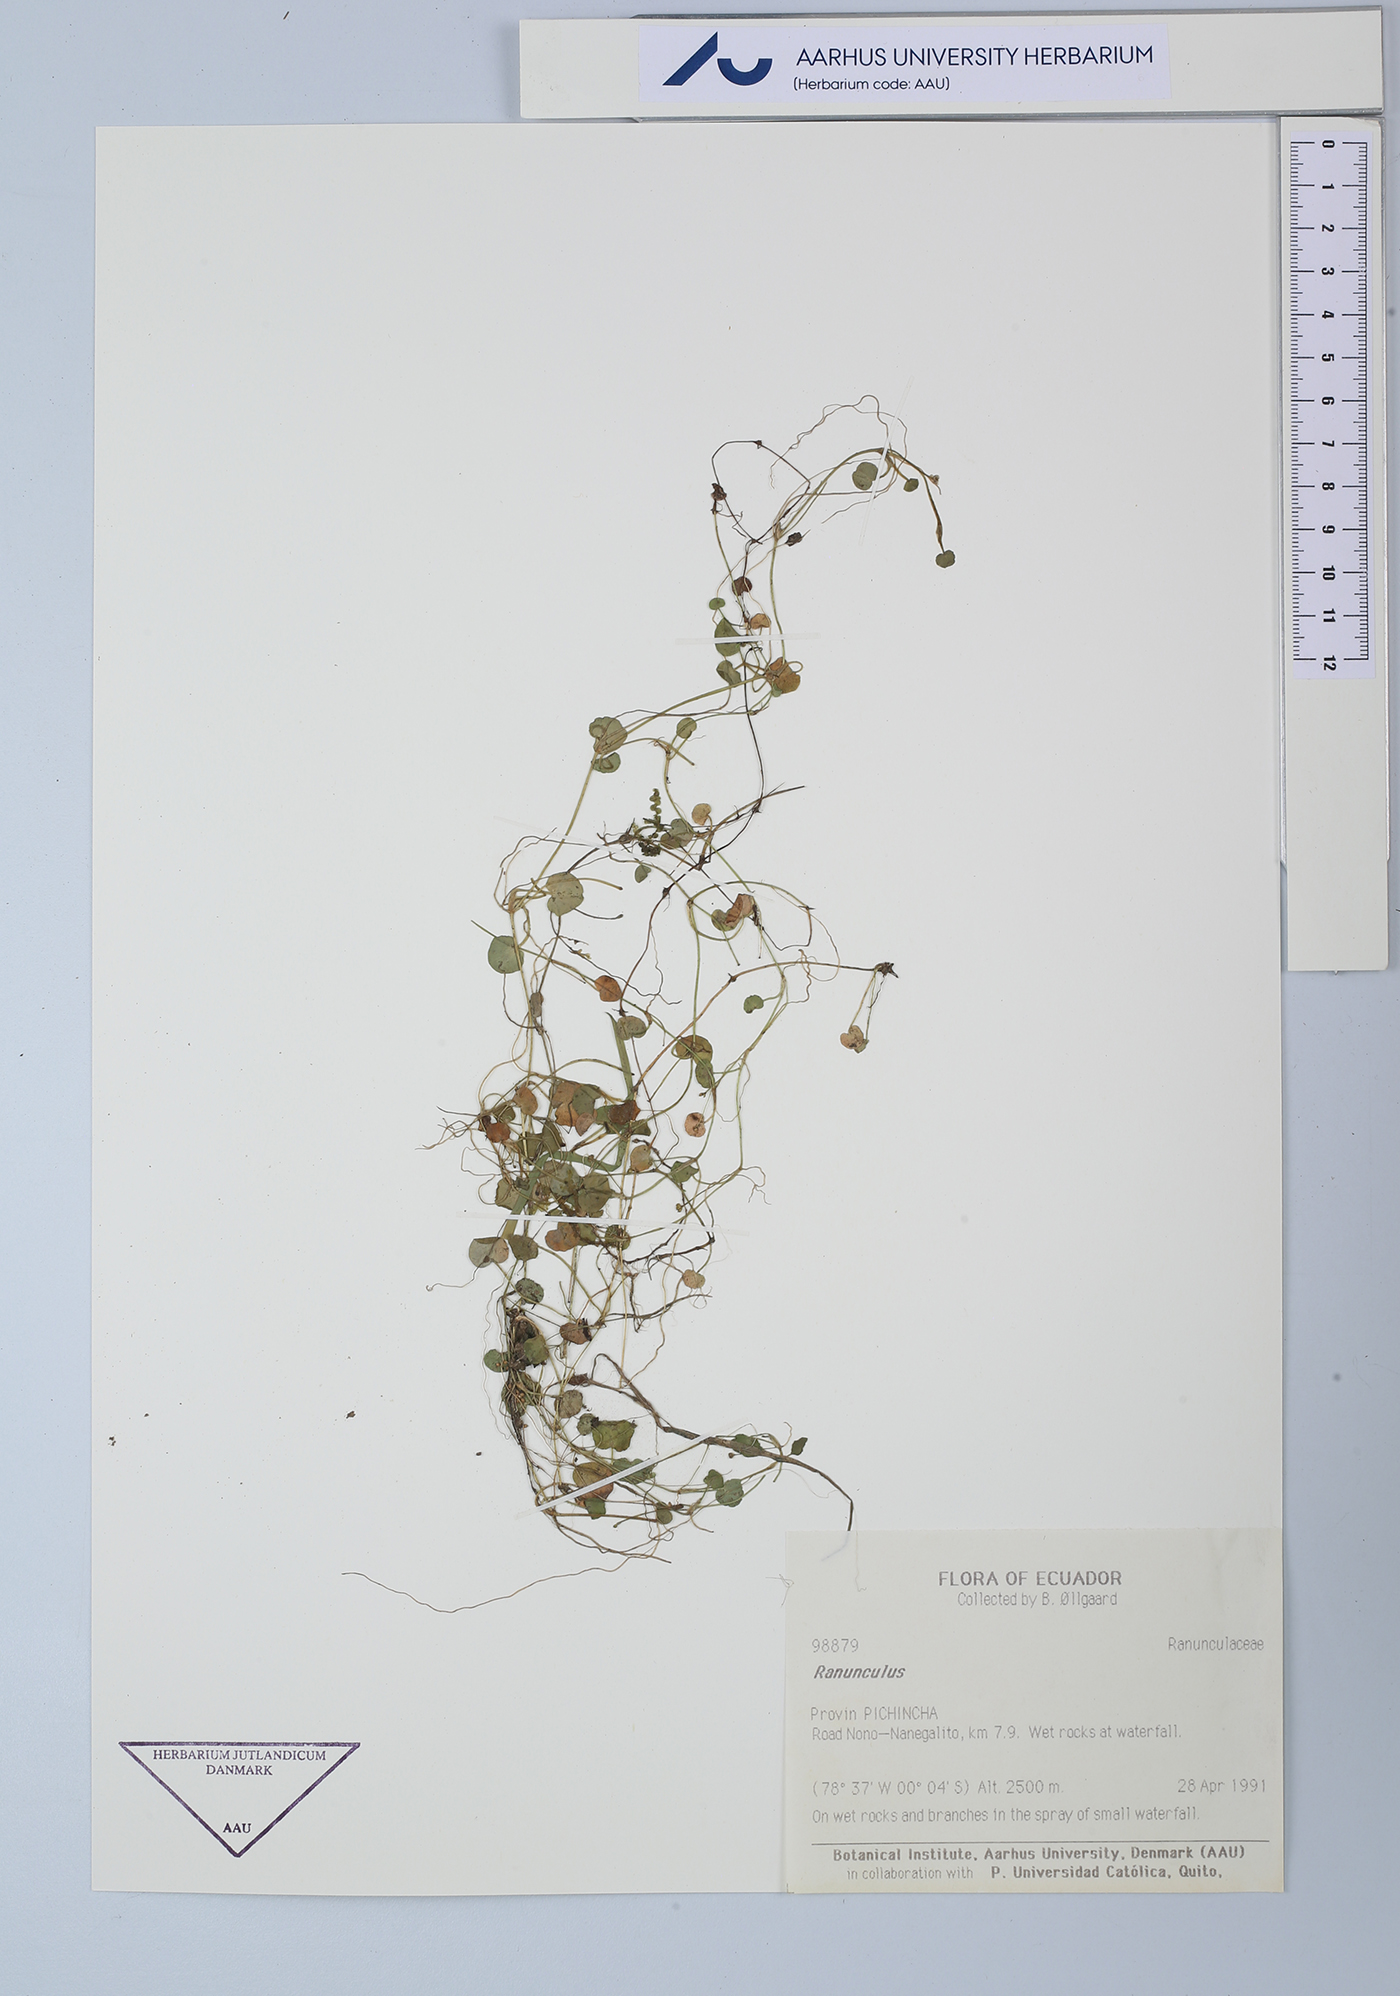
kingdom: Plantae
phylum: Tracheophyta
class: Magnoliopsida
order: Ranunculales
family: Ranunculaceae
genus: Ranunculus
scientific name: Ranunculus
